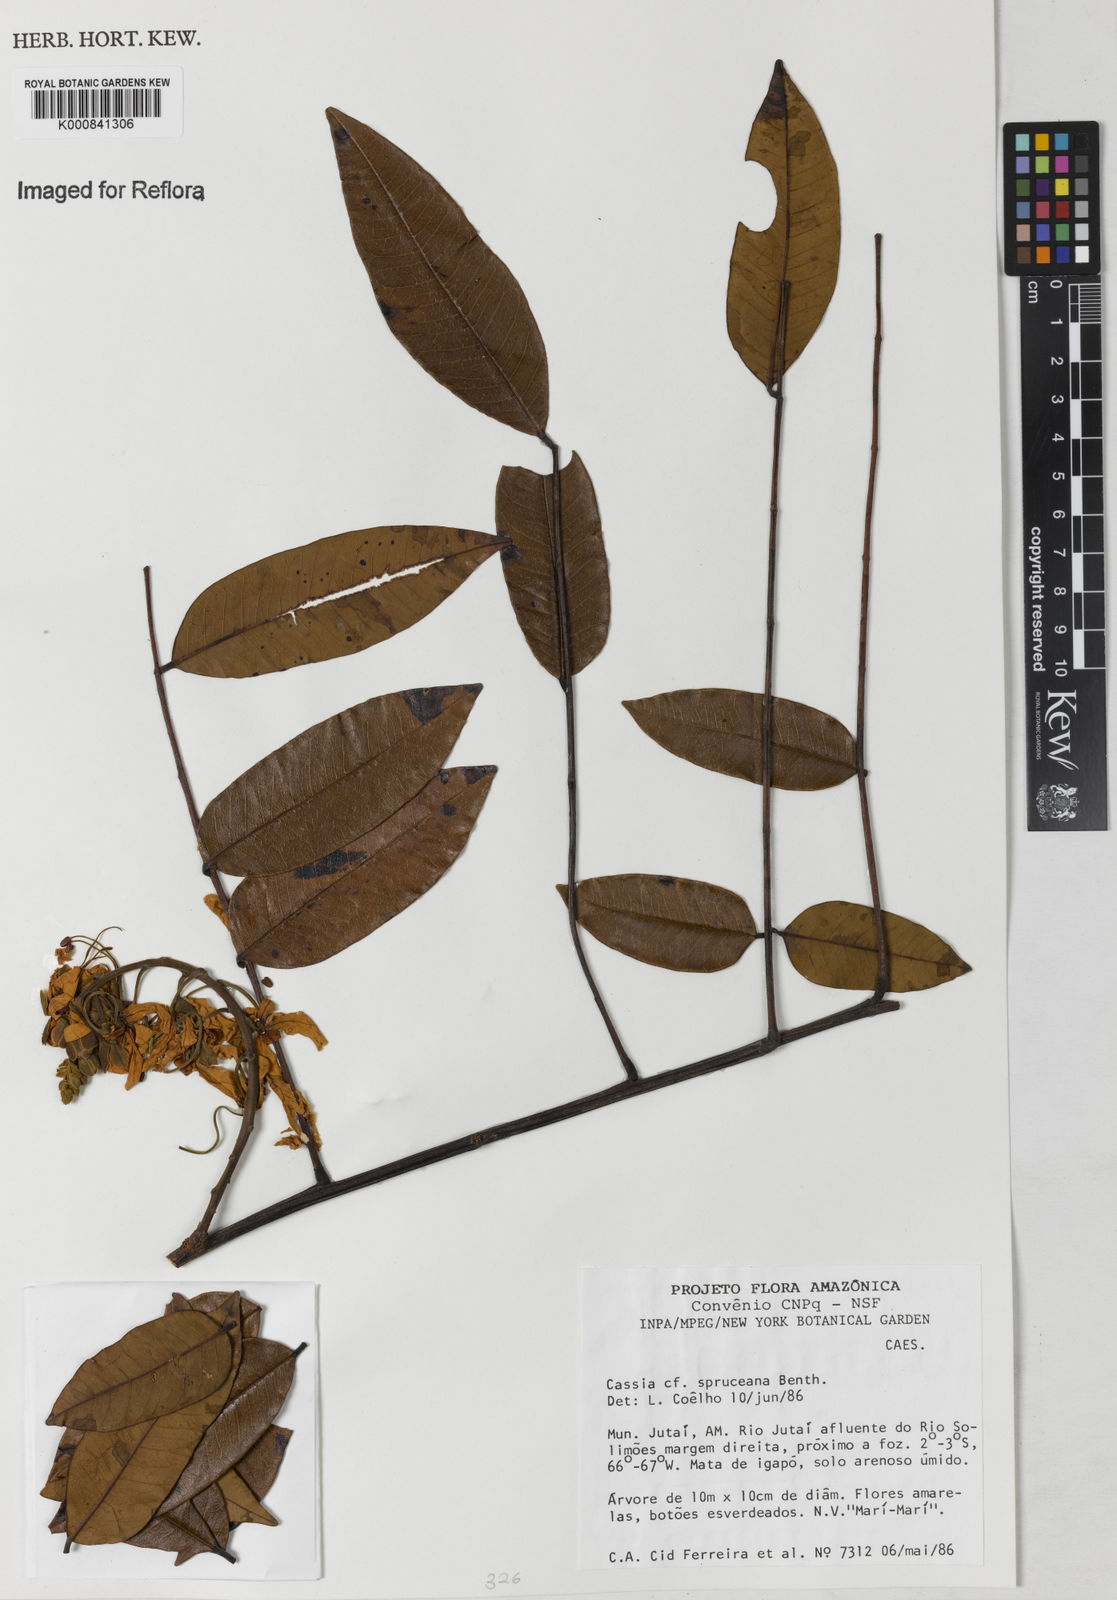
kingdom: Plantae
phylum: Tracheophyta
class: Magnoliopsida
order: Fabales
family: Fabaceae
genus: Cassia
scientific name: Cassia spruceana
